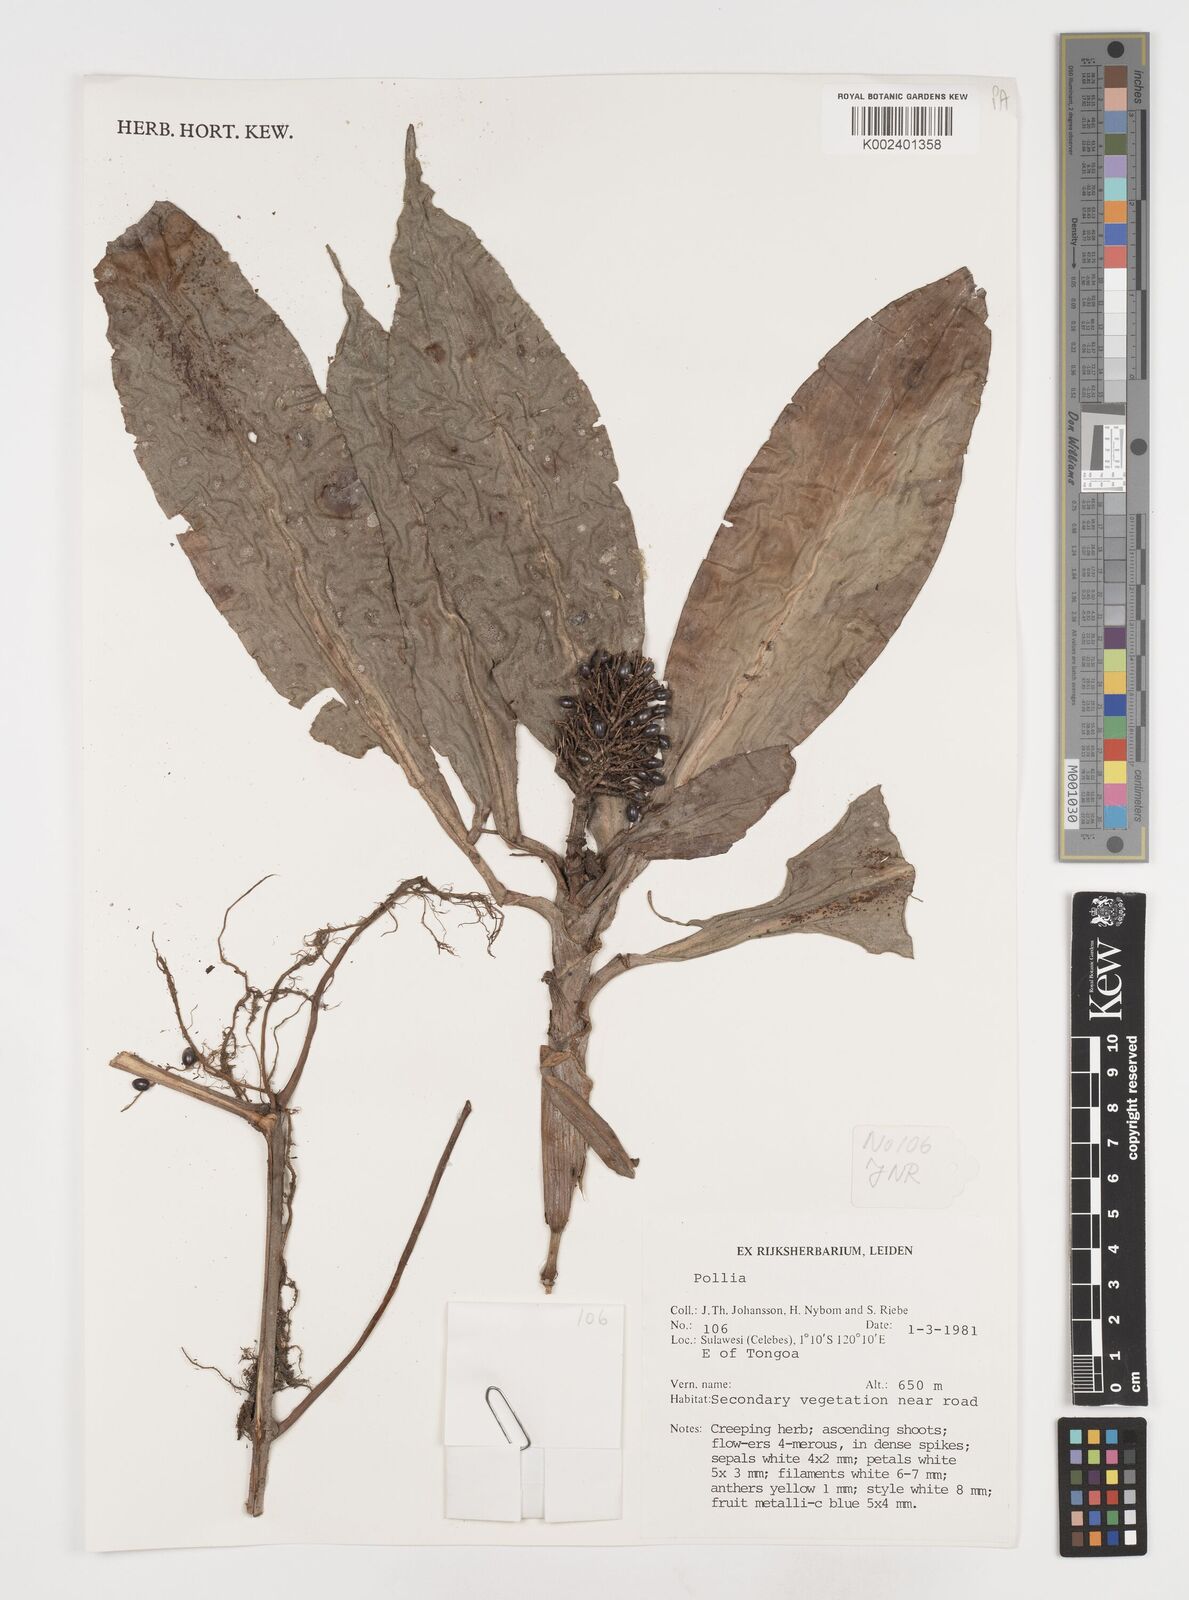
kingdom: Plantae
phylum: Tracheophyta
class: Liliopsida
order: Commelinales
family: Commelinaceae
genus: Pollia
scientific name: Pollia thyrsiflora
